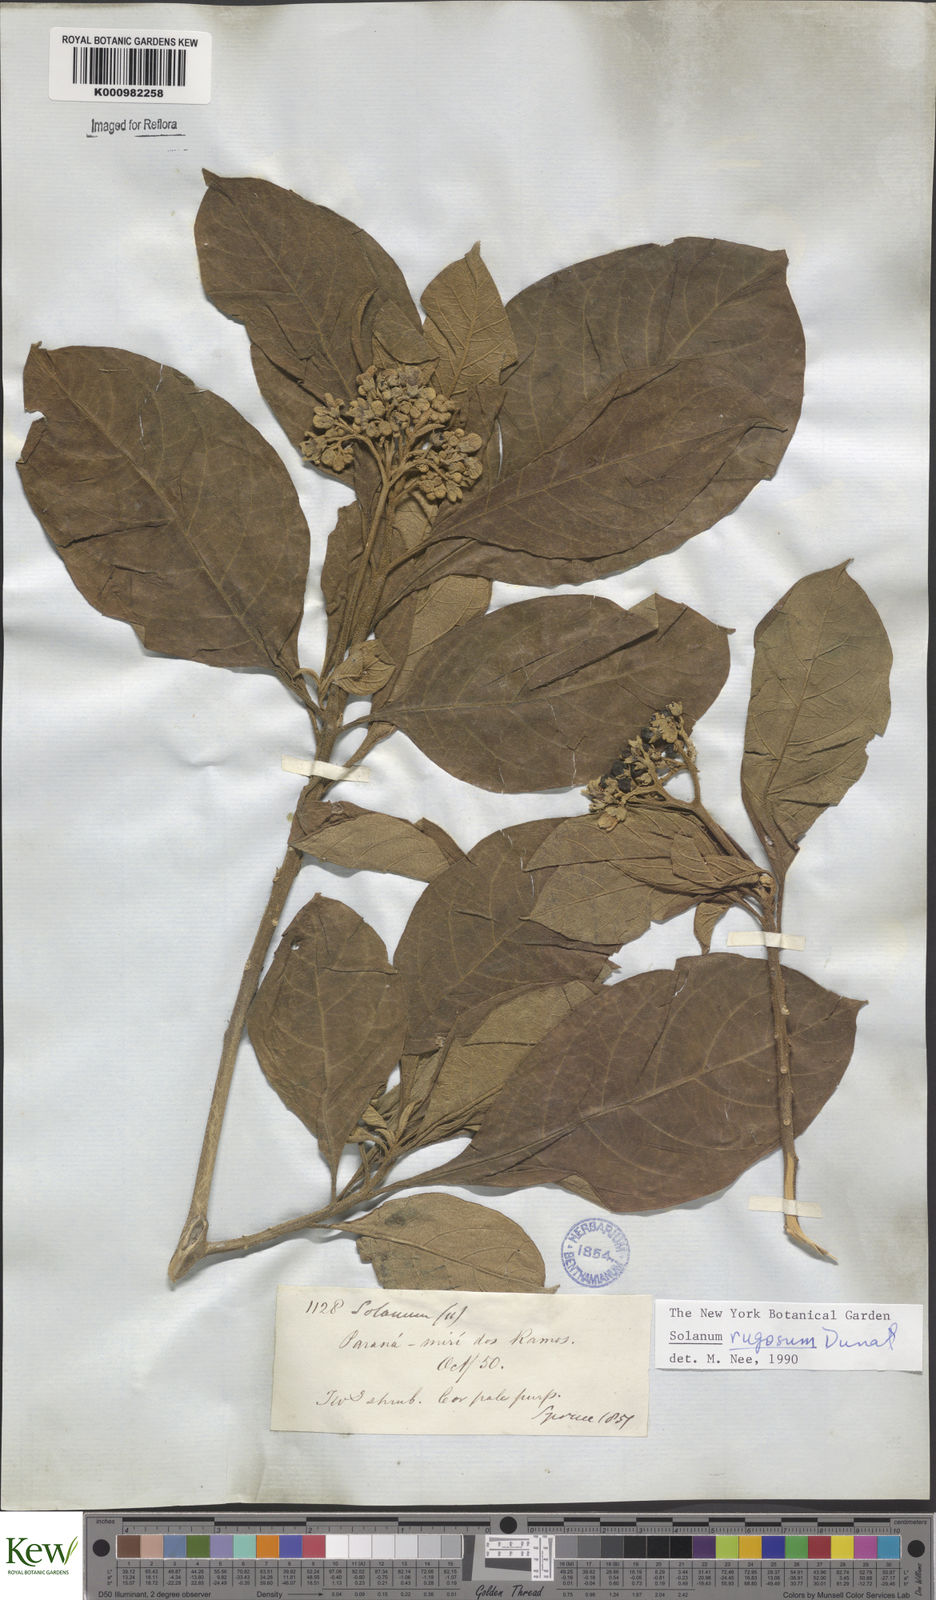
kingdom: Plantae
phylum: Tracheophyta
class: Magnoliopsida
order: Solanales
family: Solanaceae
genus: Solanum
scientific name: Solanum rugosum
